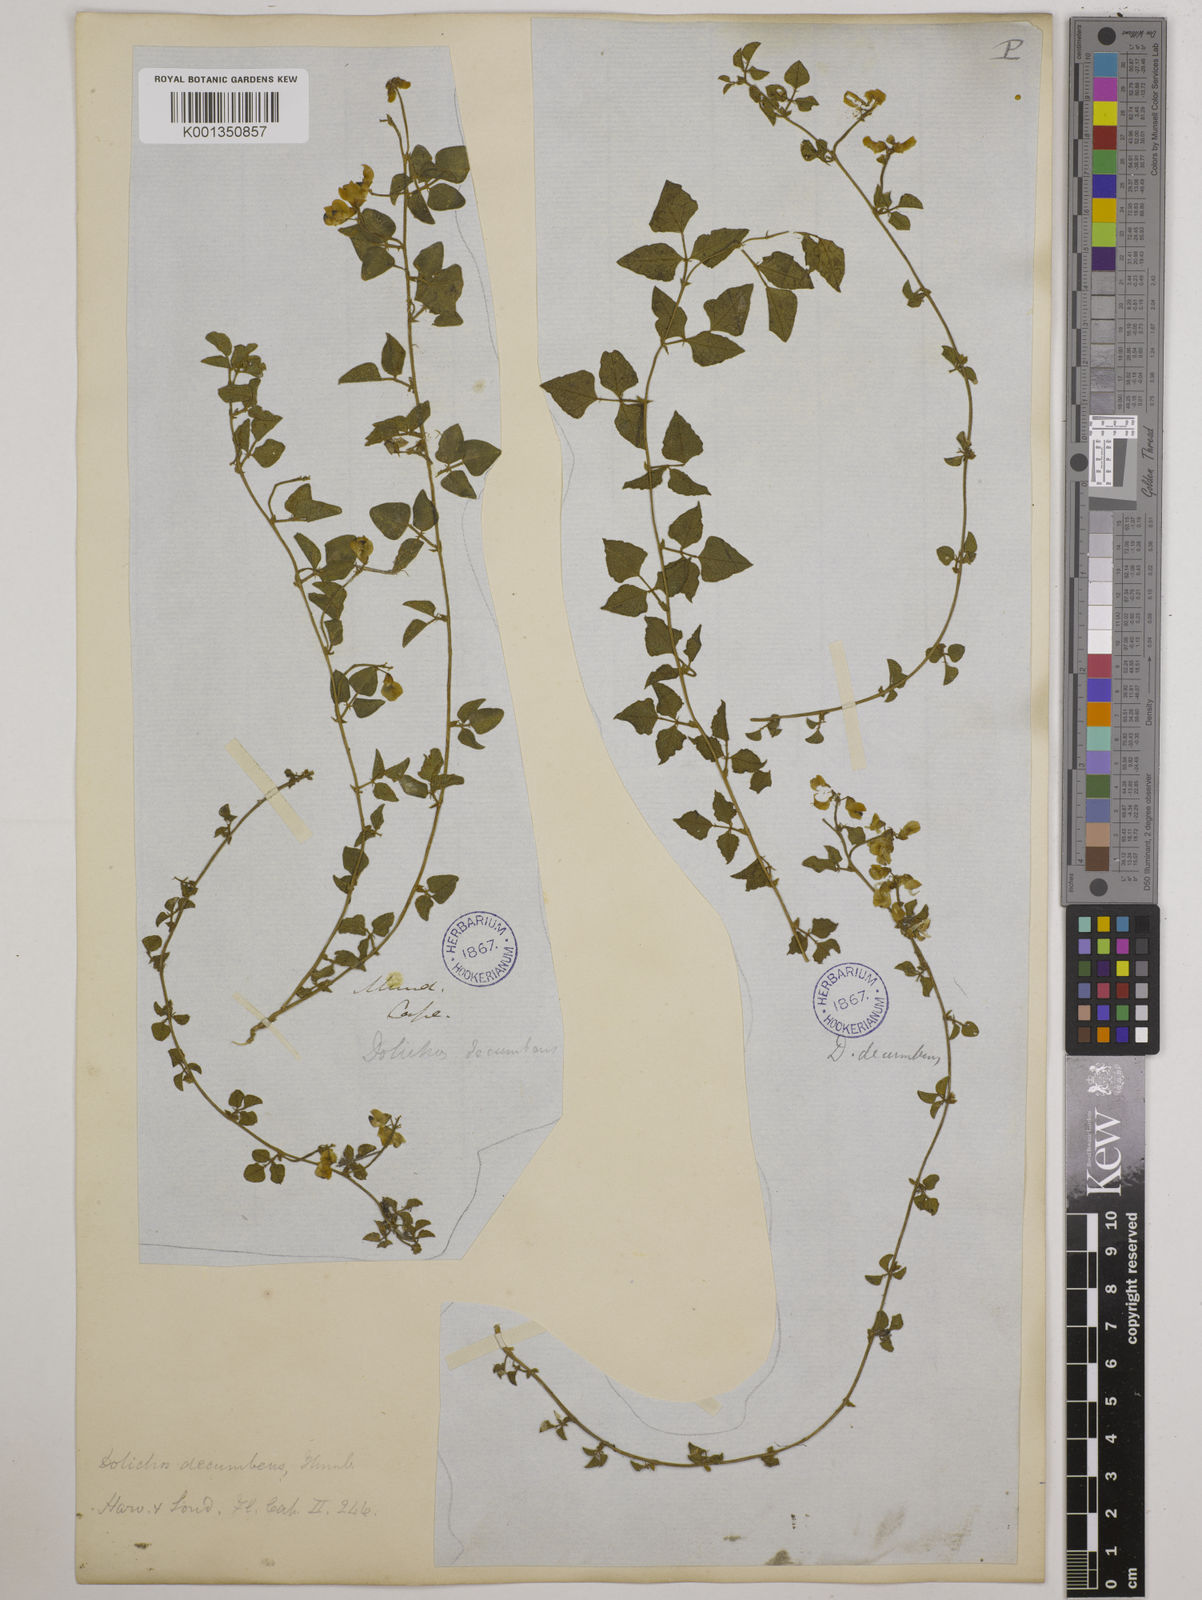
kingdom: Plantae
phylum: Tracheophyta
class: Magnoliopsida
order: Fabales
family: Fabaceae
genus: Dolichos
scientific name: Dolichos decumbens
